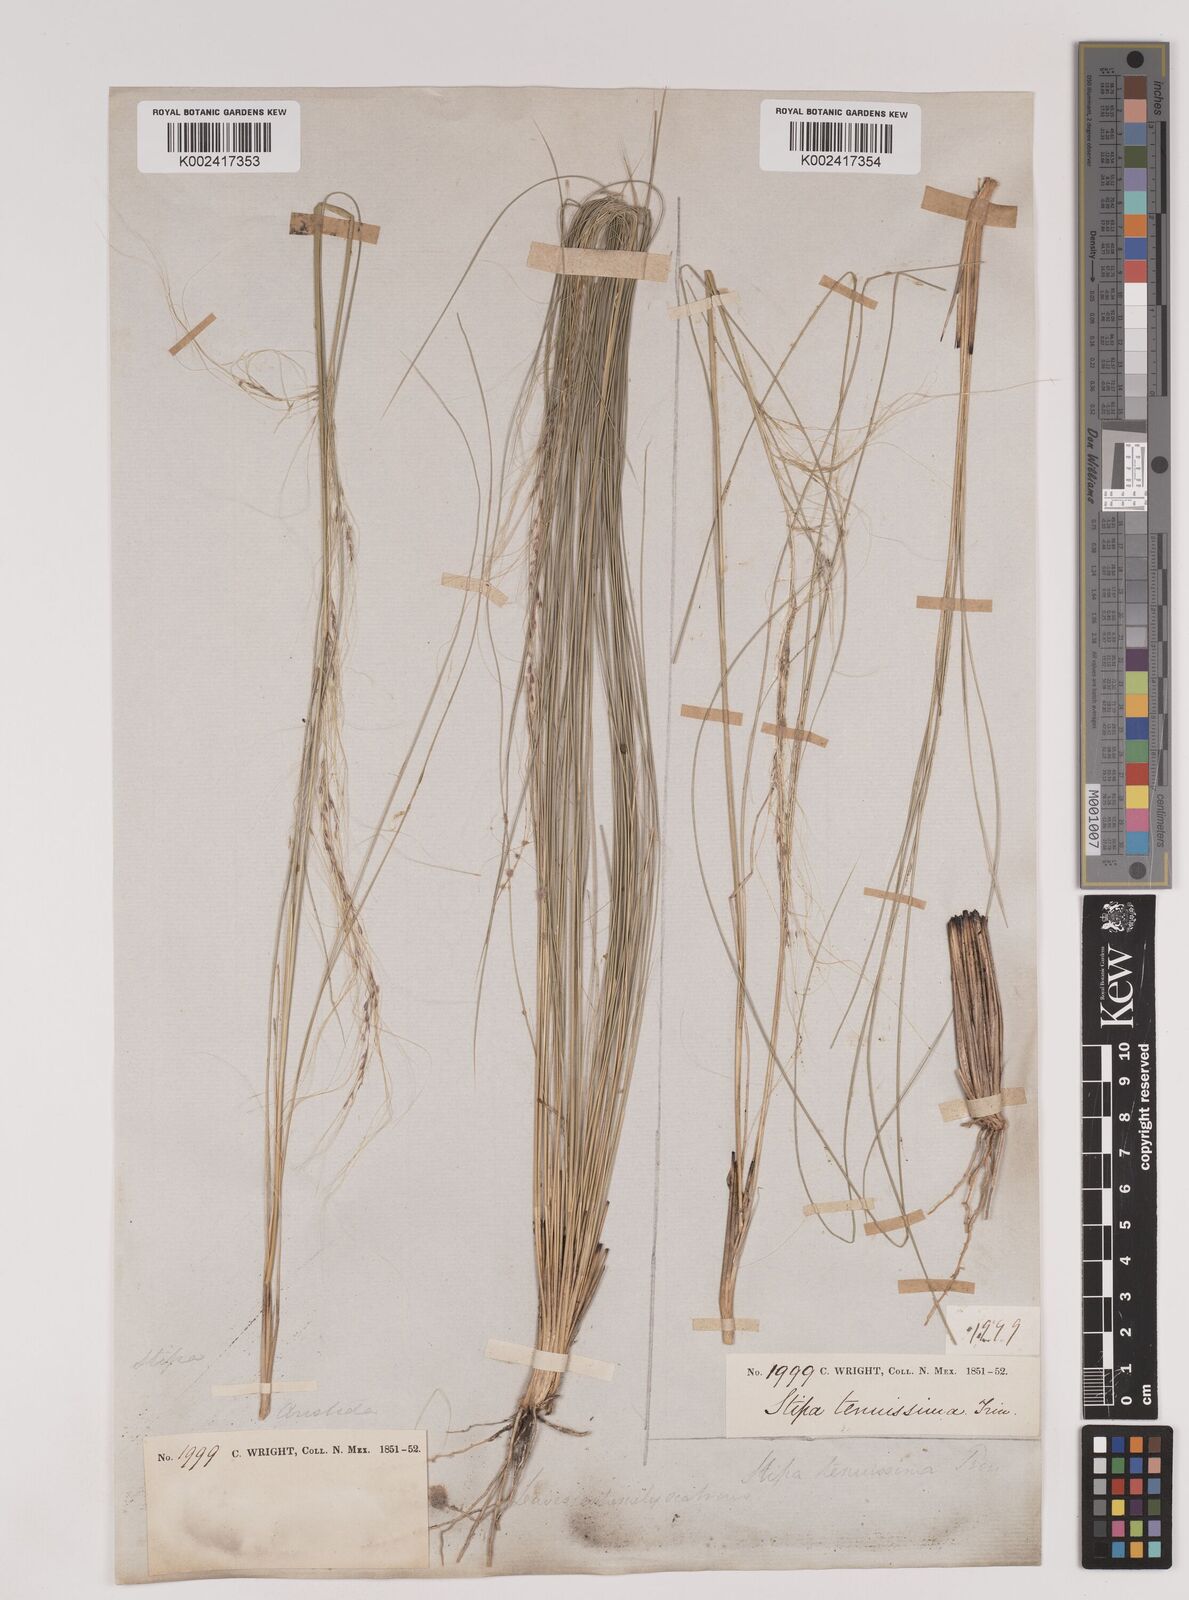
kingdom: Plantae
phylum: Tracheophyta
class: Liliopsida
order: Poales
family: Poaceae
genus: Nassella
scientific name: Nassella tenuissima
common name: Argentine needlegrass
